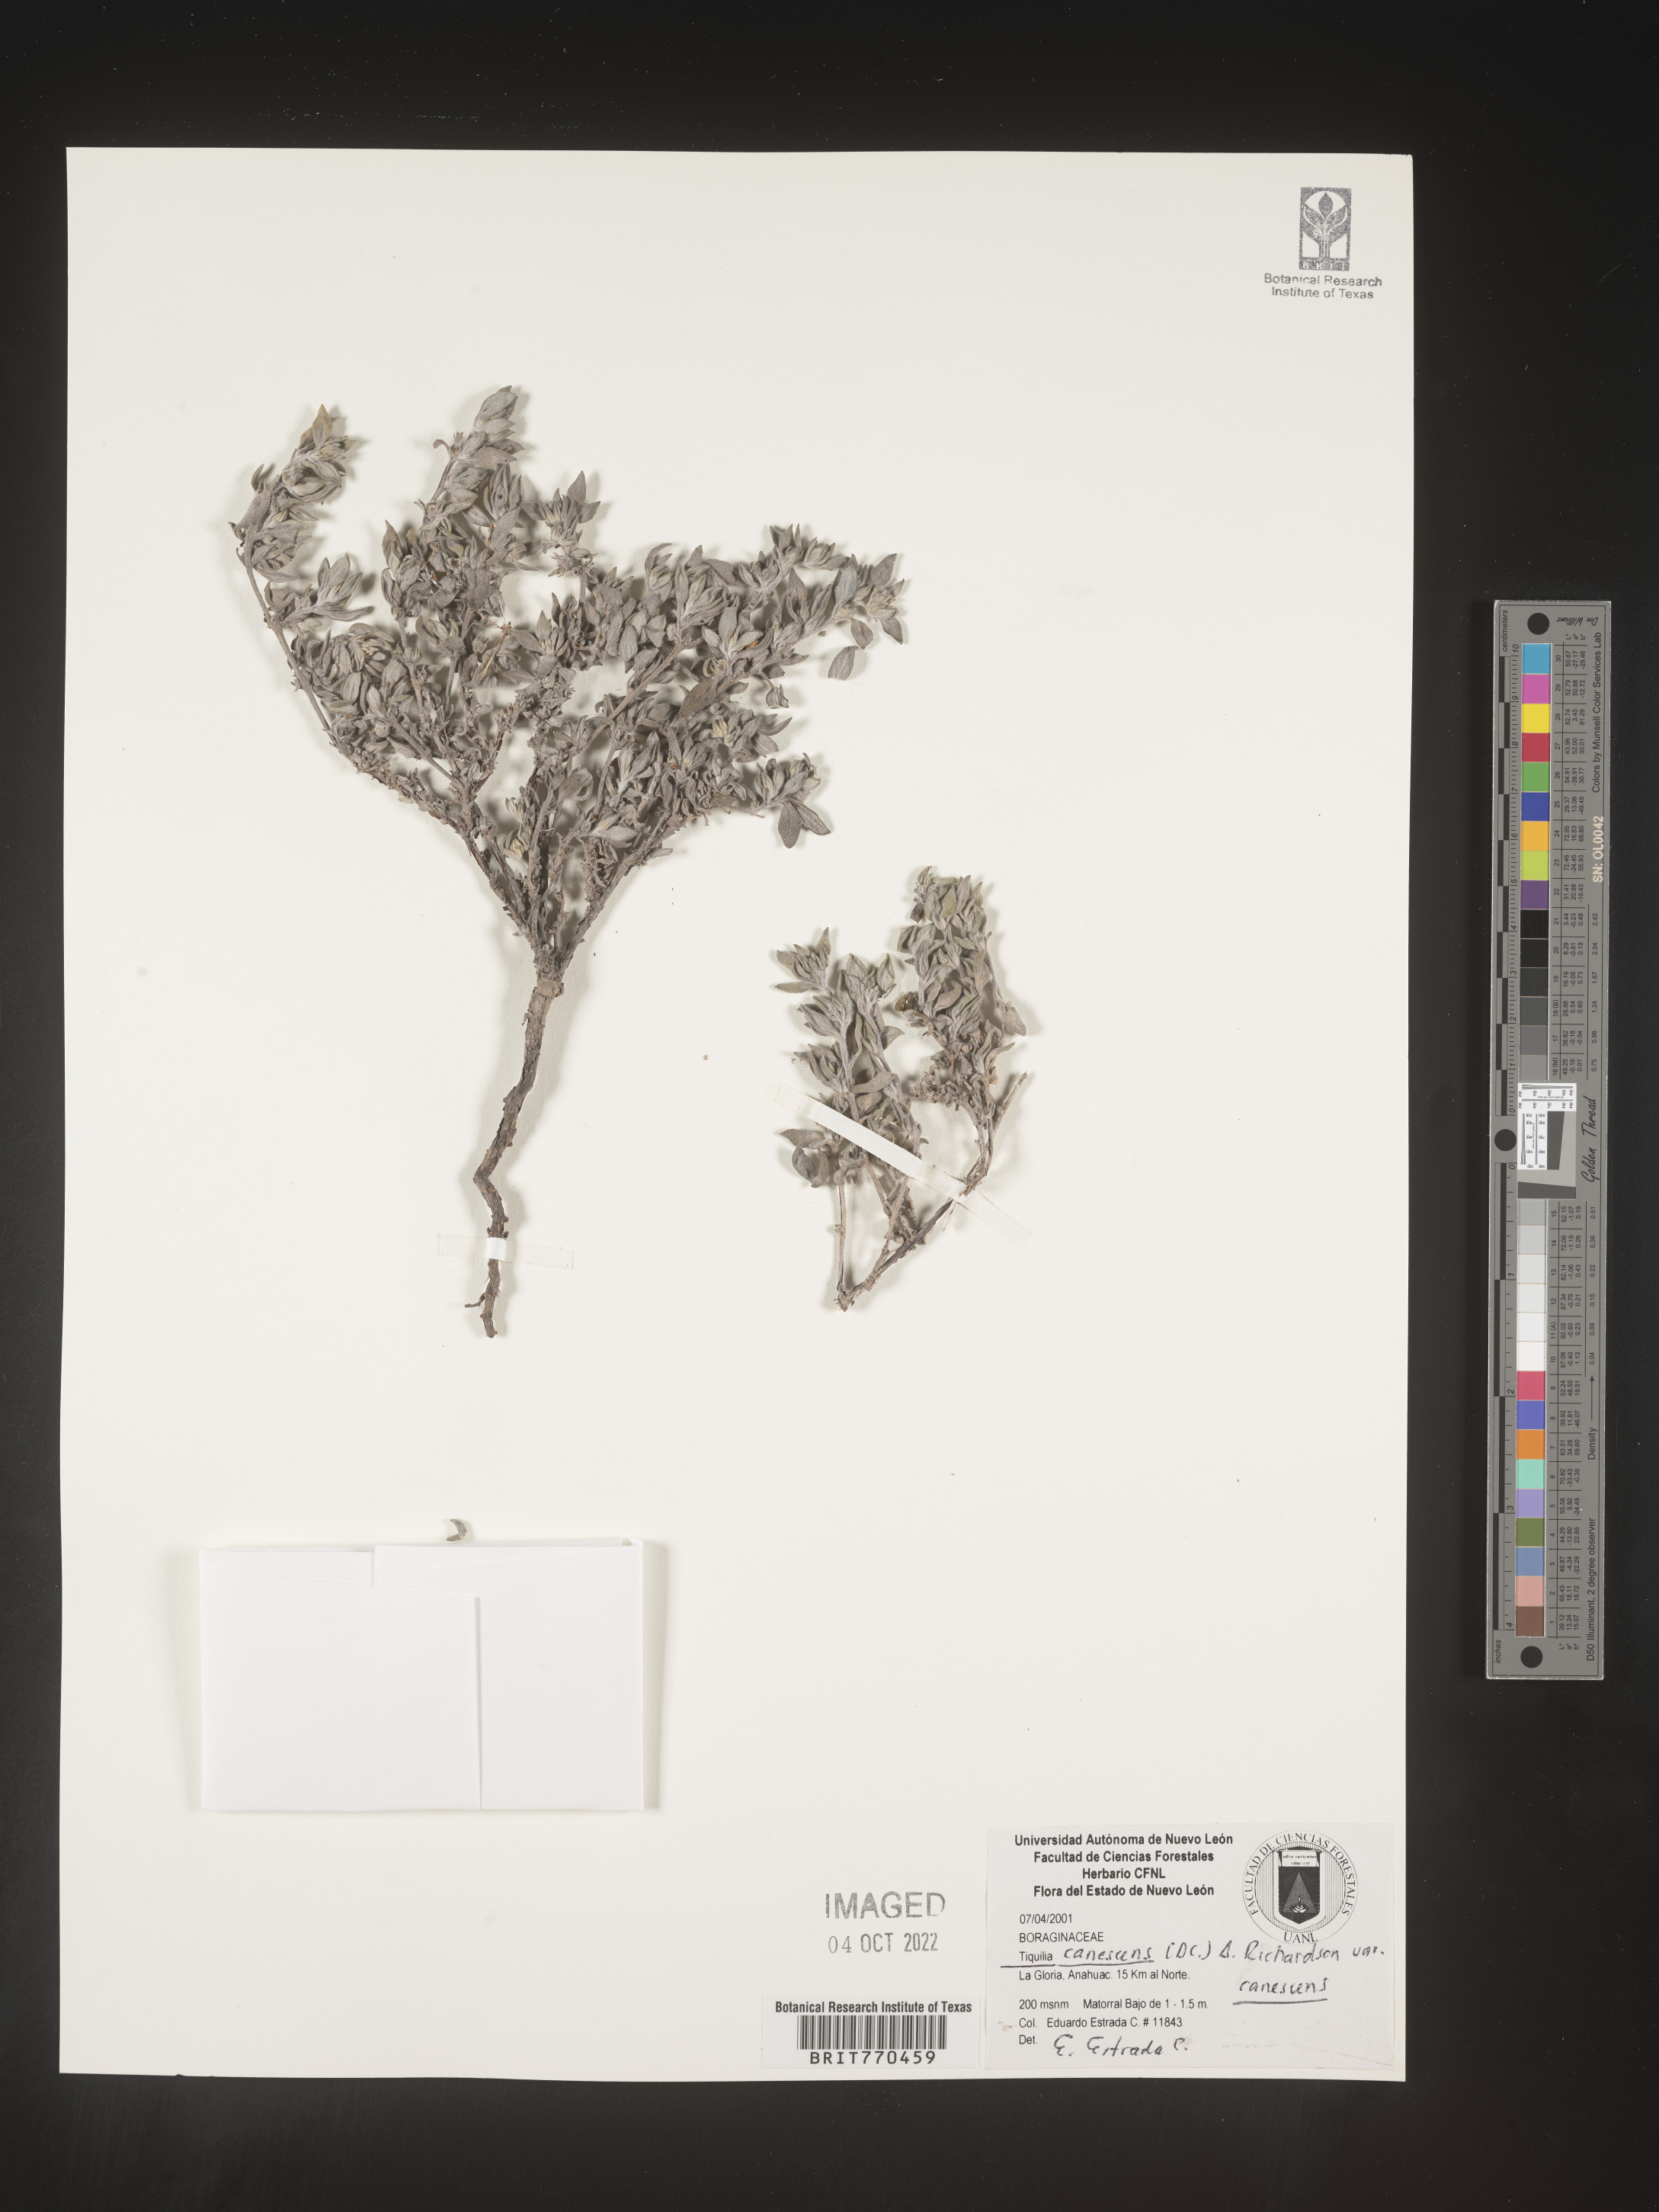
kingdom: Plantae
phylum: Tracheophyta
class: Magnoliopsida
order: Boraginales
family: Ehretiaceae
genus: Tiquilia
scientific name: Tiquilia
